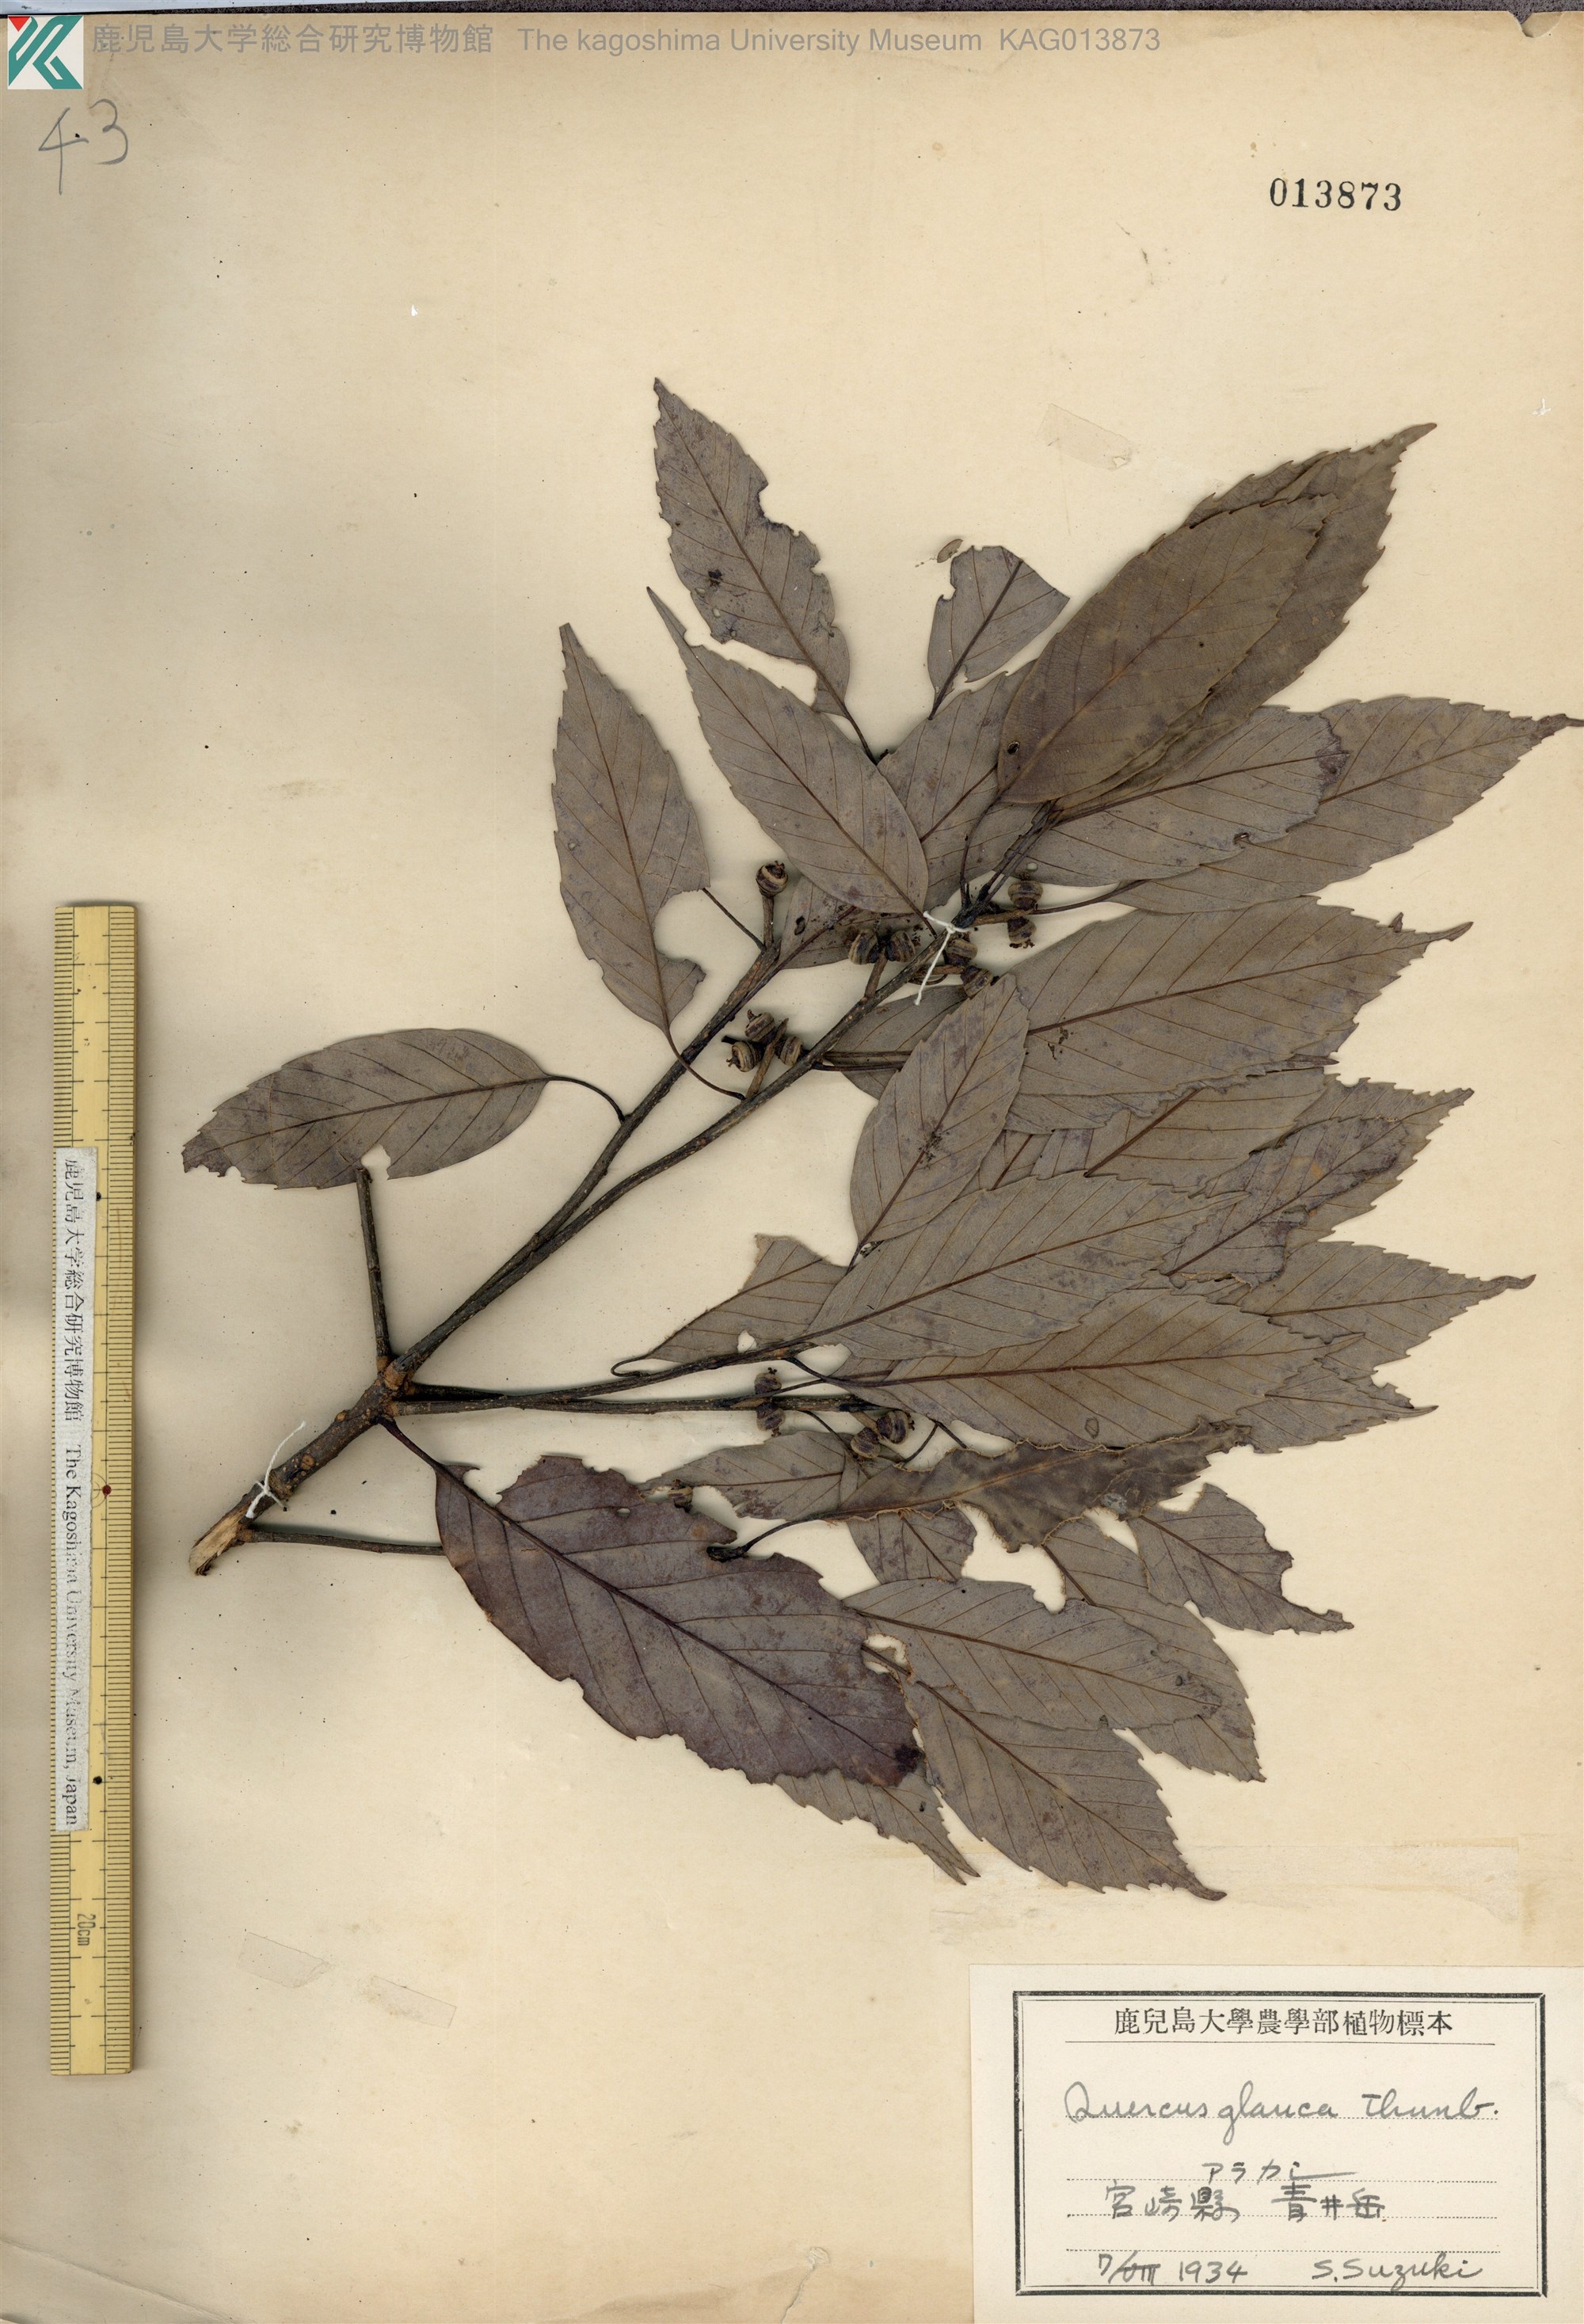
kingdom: Plantae
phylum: Tracheophyta
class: Magnoliopsida
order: Fagales
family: Fagaceae
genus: Quercus
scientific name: Quercus glauca
